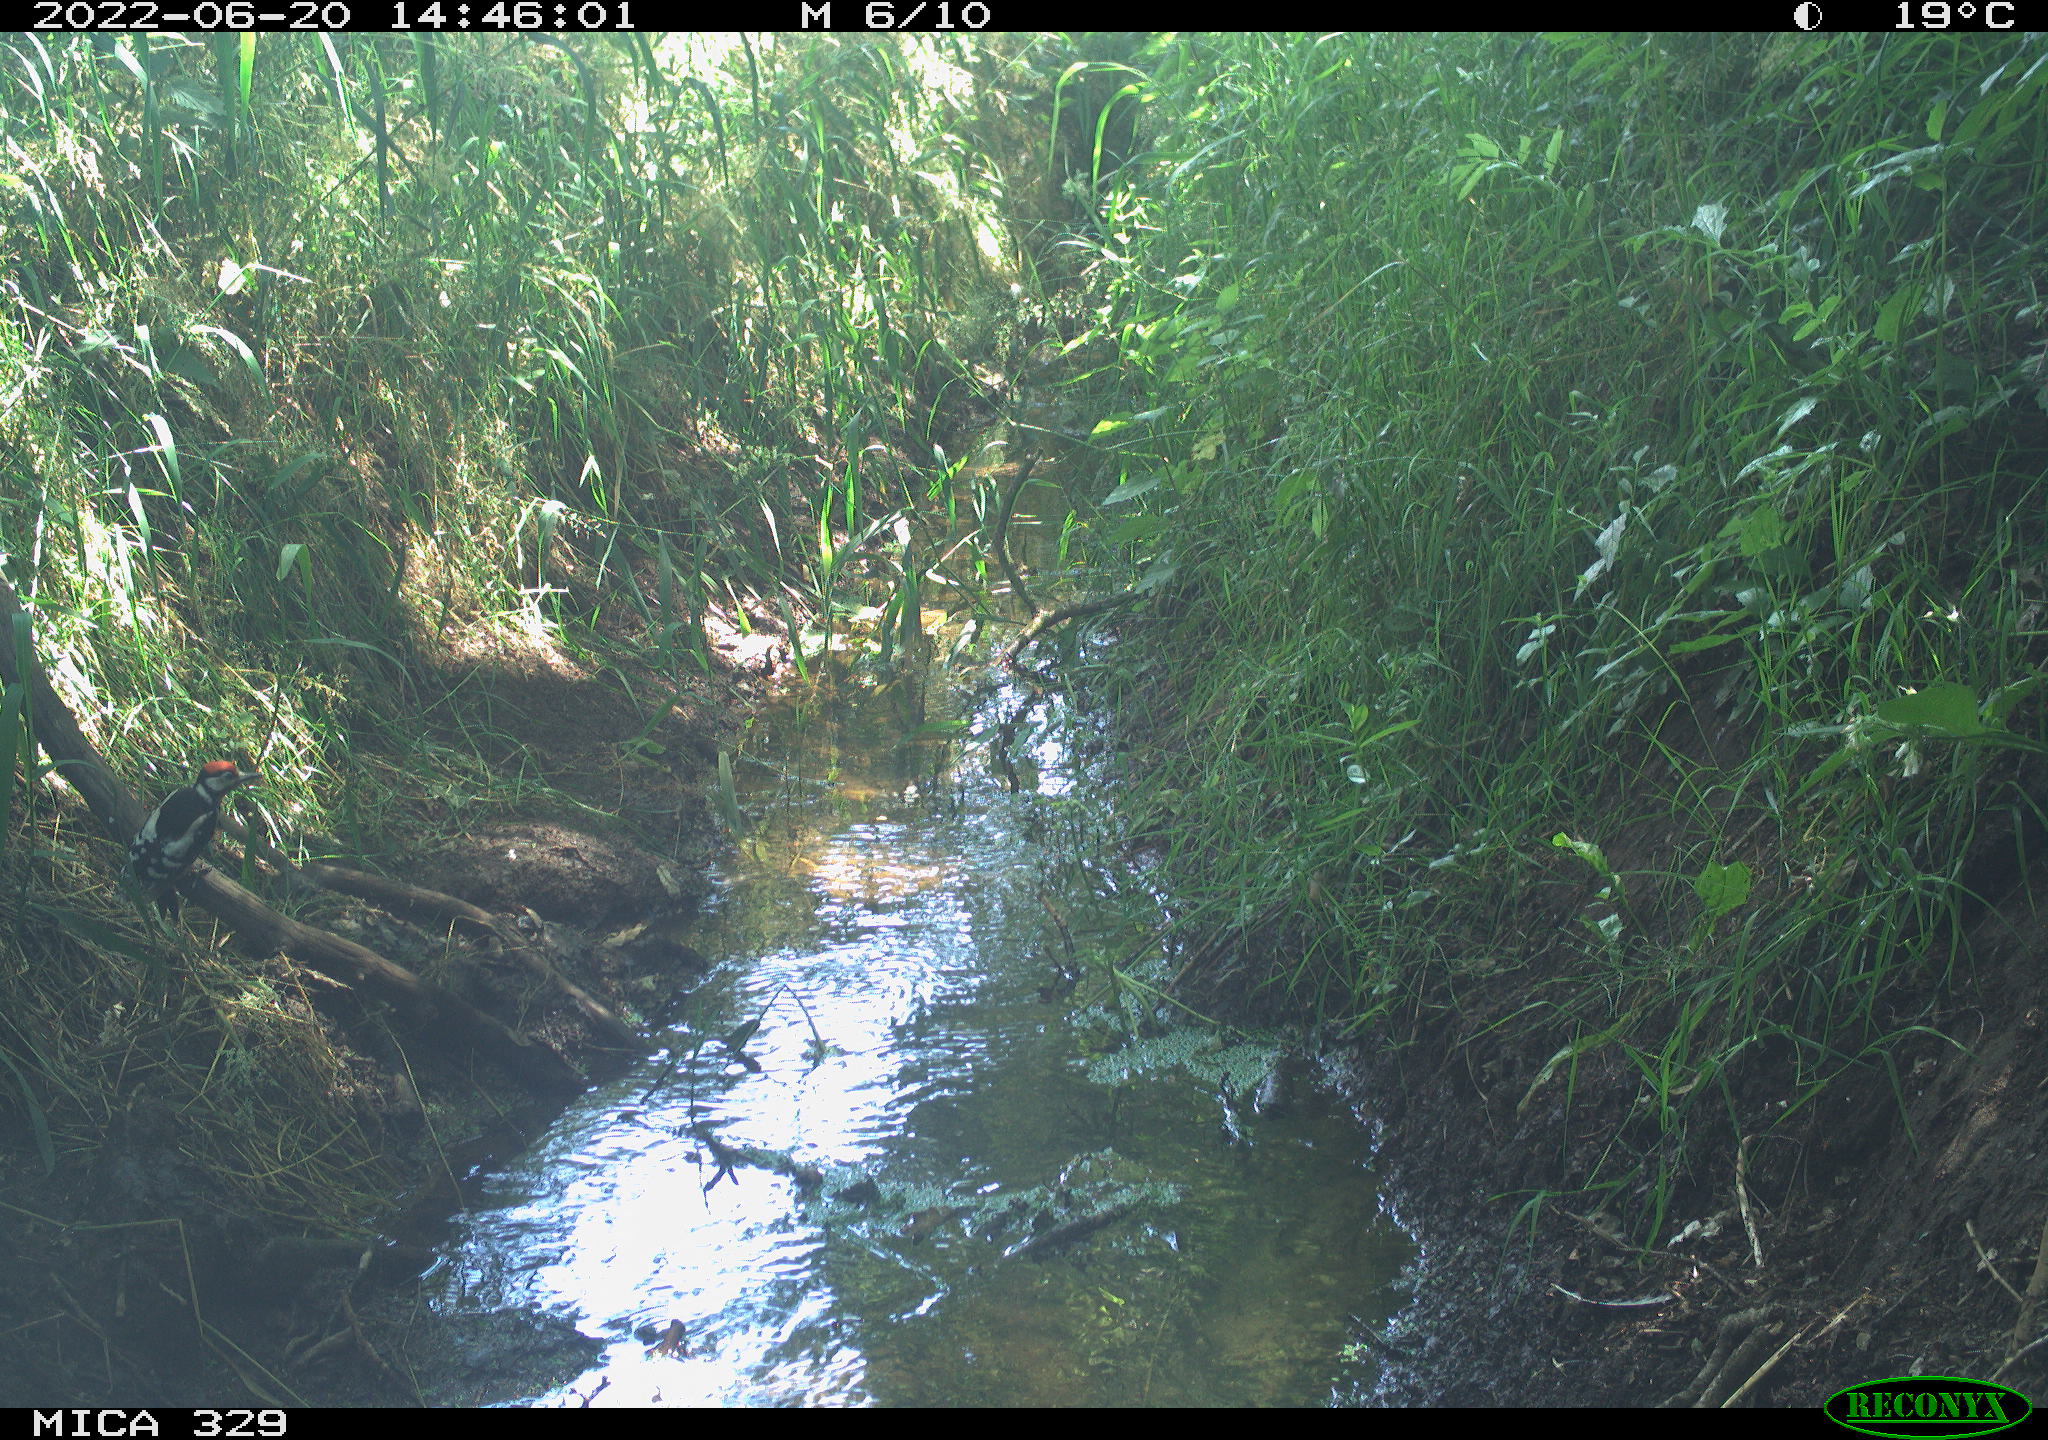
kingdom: Animalia
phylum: Chordata
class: Aves
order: Piciformes
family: Picidae
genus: Dendrocopos
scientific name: Dendrocopos major
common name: Great spotted woodpecker
